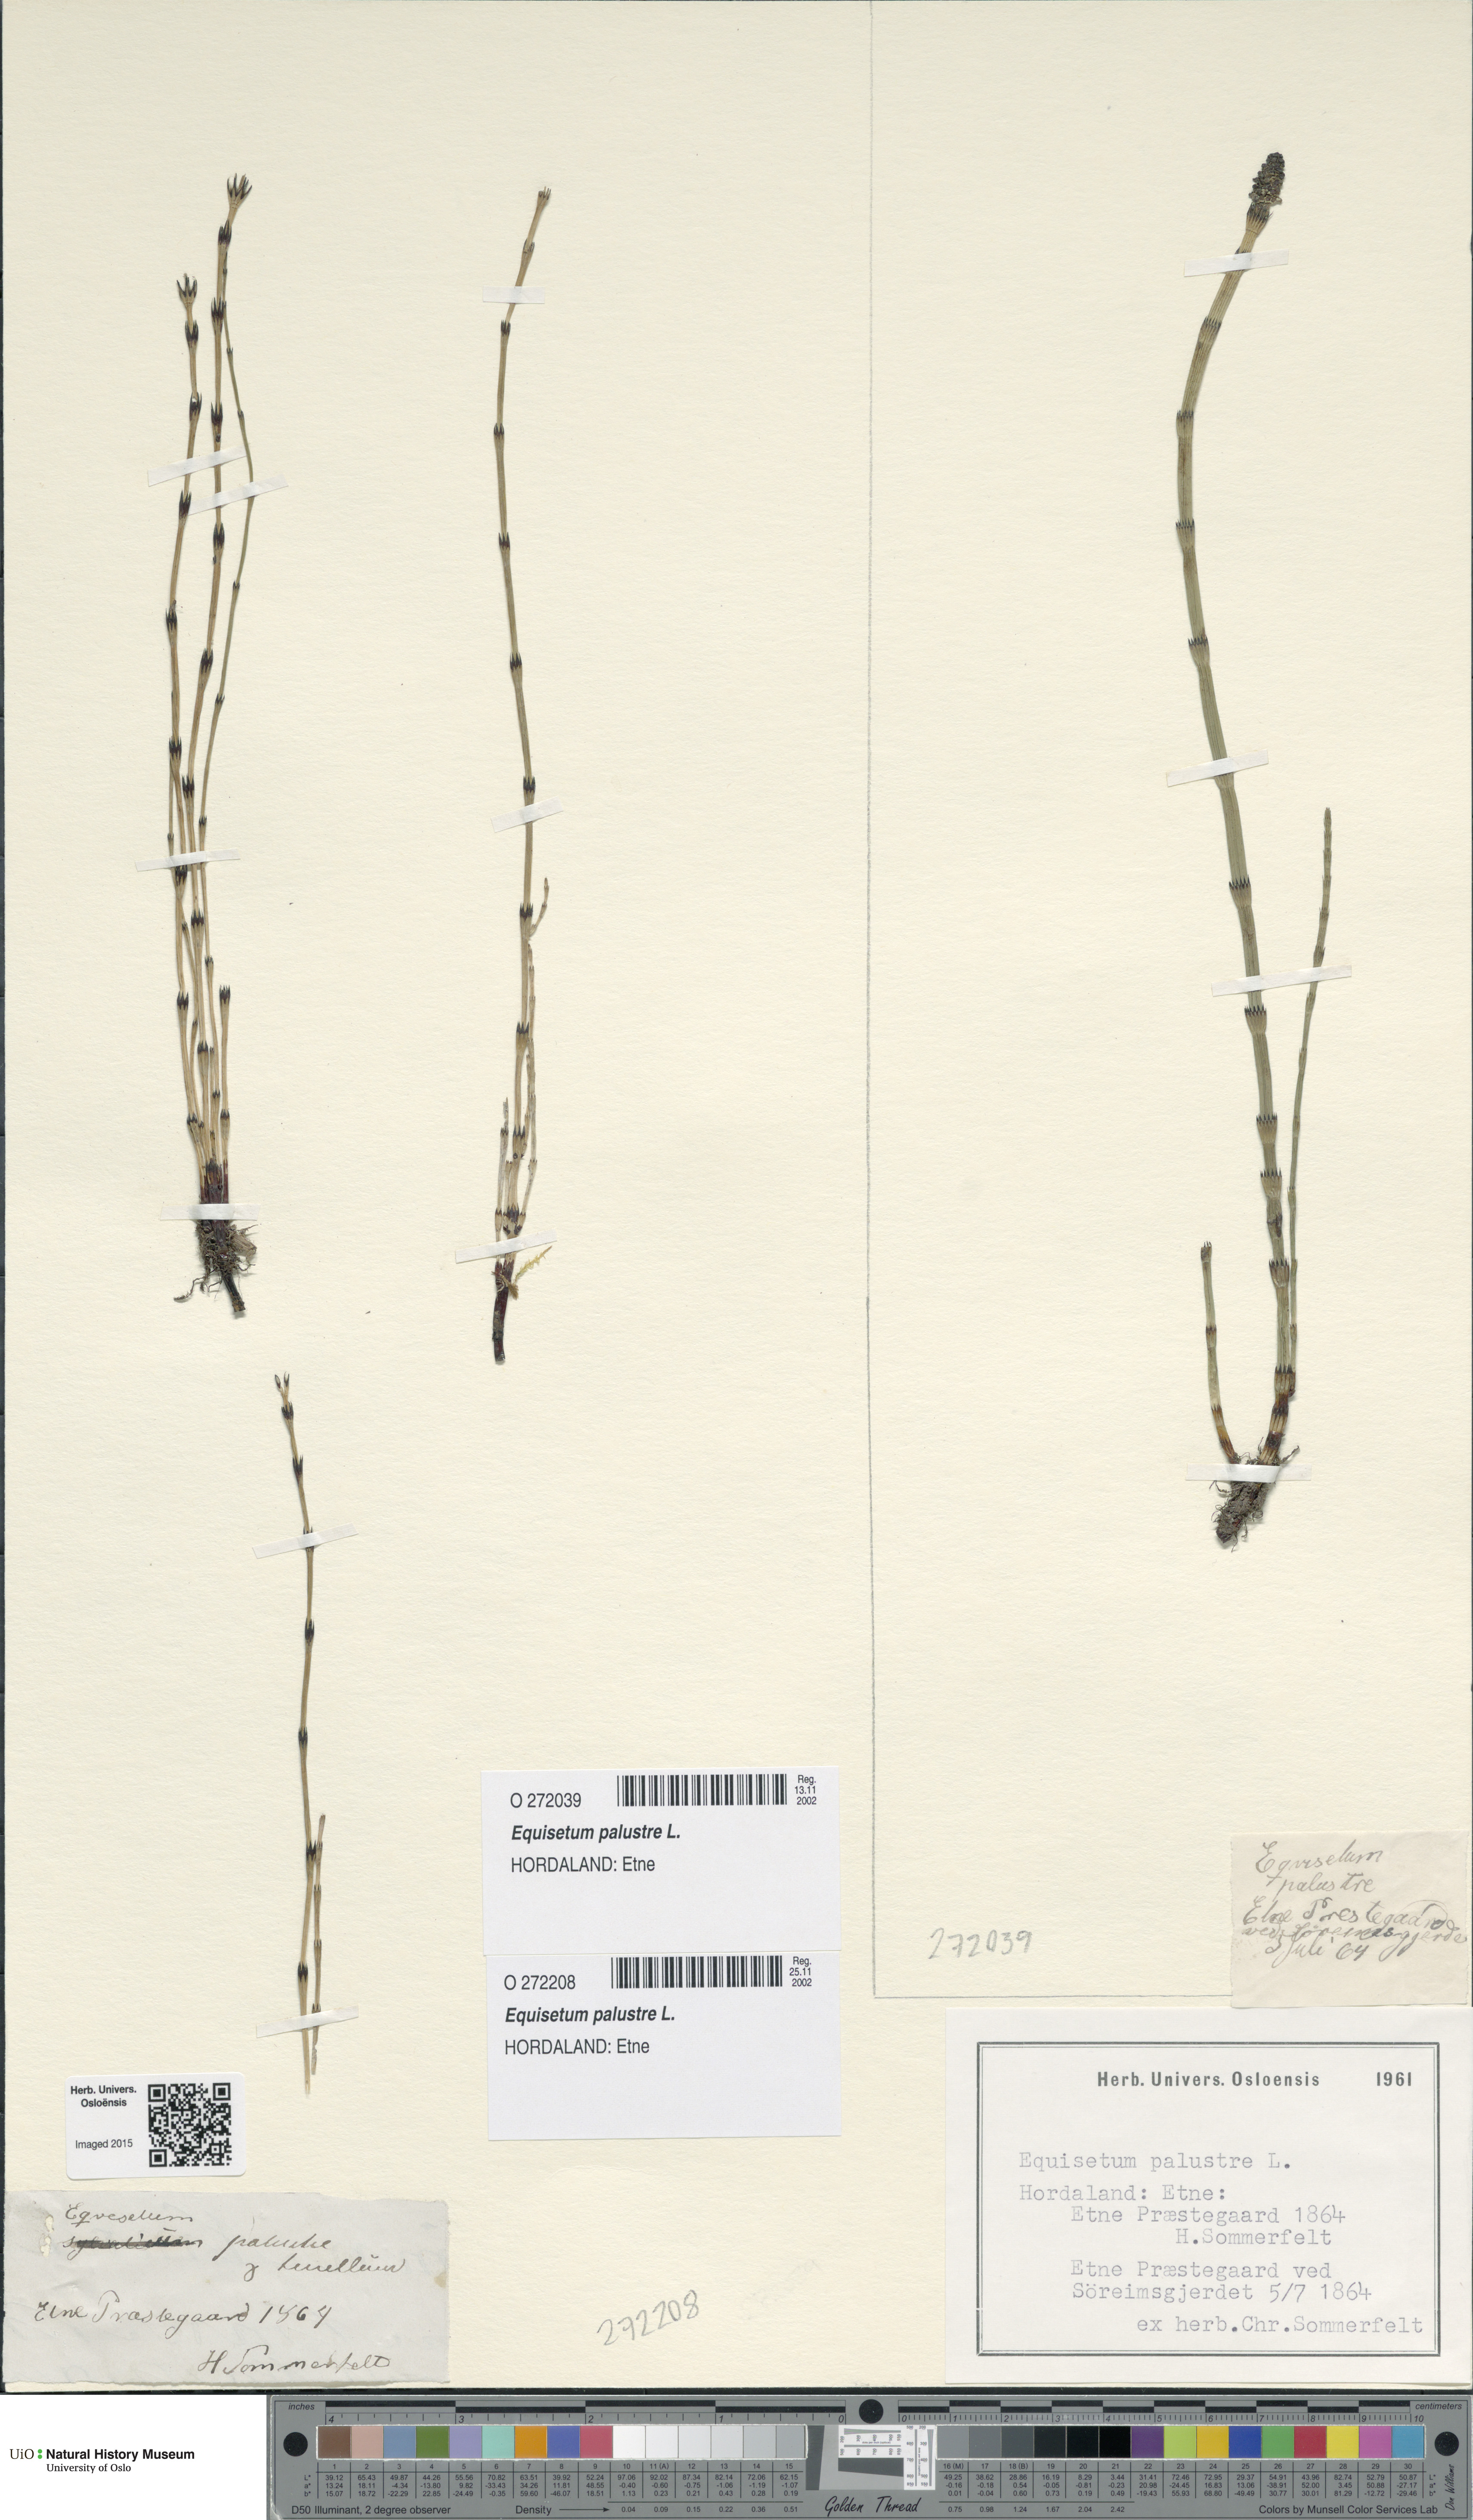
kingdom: Plantae
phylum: Tracheophyta
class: Polypodiopsida
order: Equisetales
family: Equisetaceae
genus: Equisetum
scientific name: Equisetum palustre
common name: Marsh horsetail
